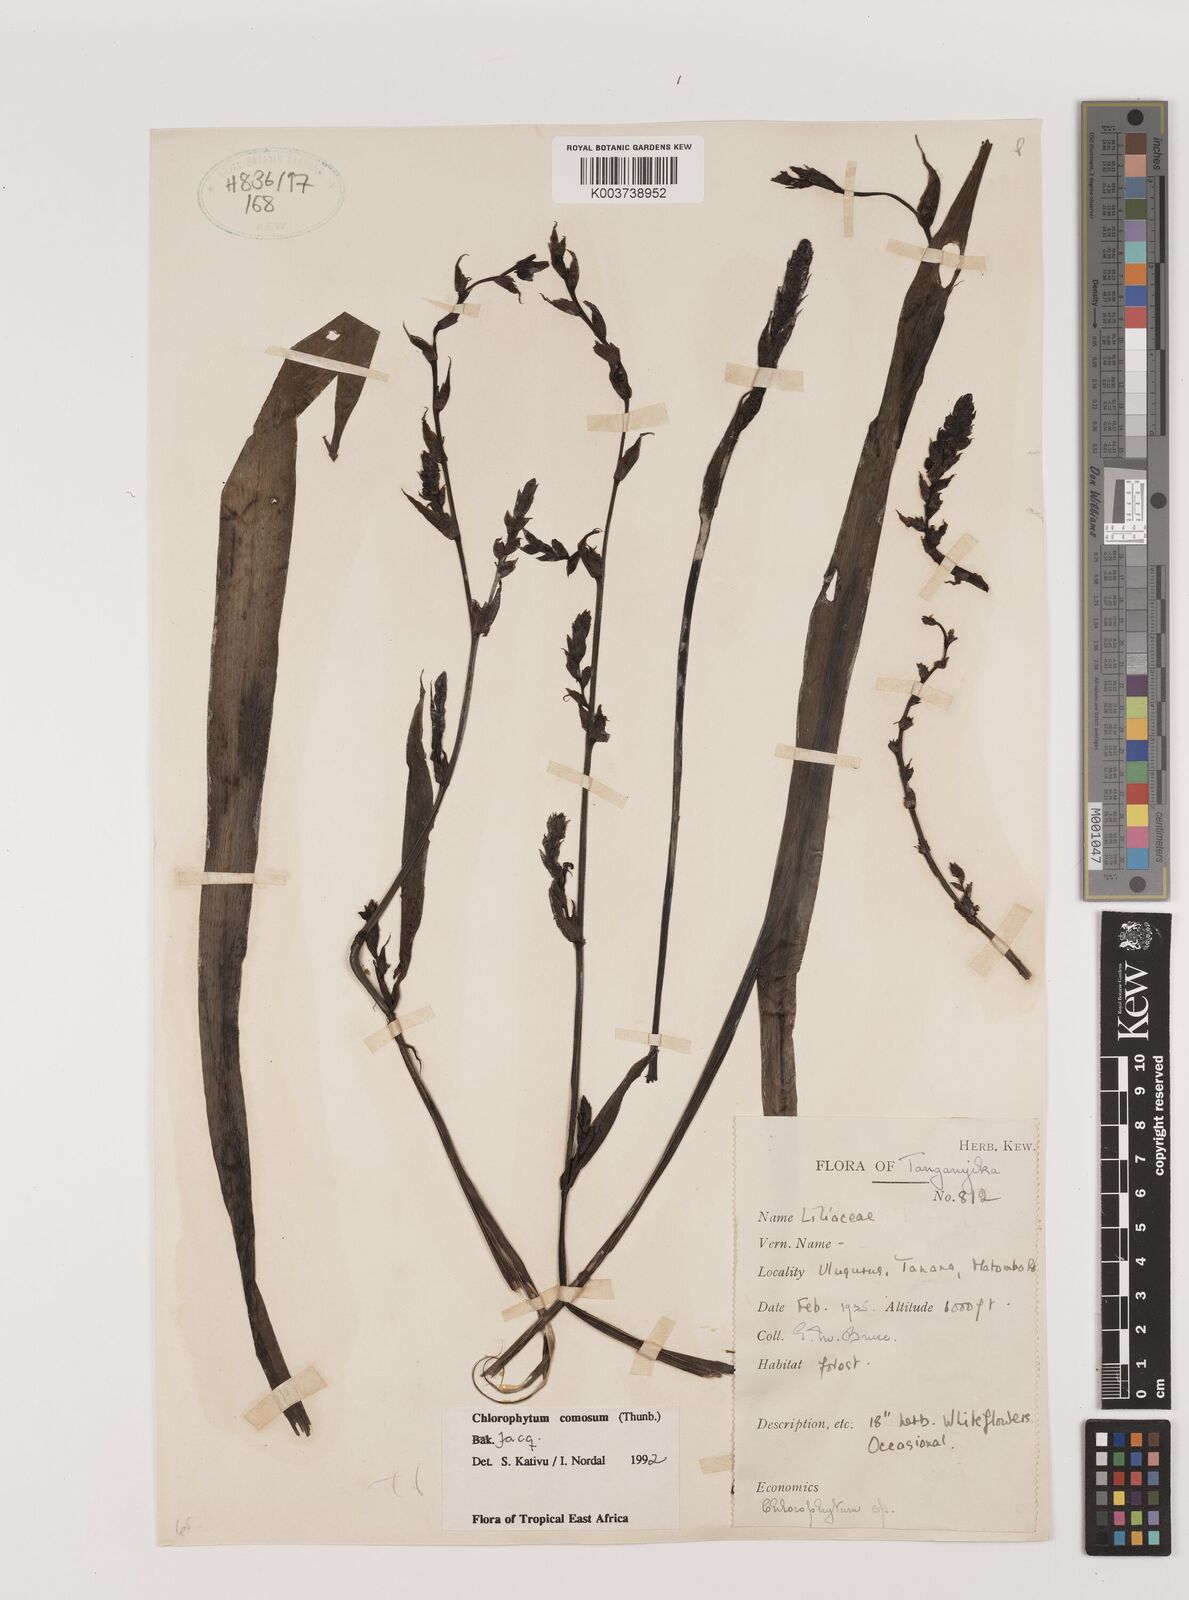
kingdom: Plantae
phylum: Tracheophyta
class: Liliopsida
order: Asparagales
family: Asparagaceae
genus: Chlorophytum
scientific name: Chlorophytum comosum
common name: Spider plant
